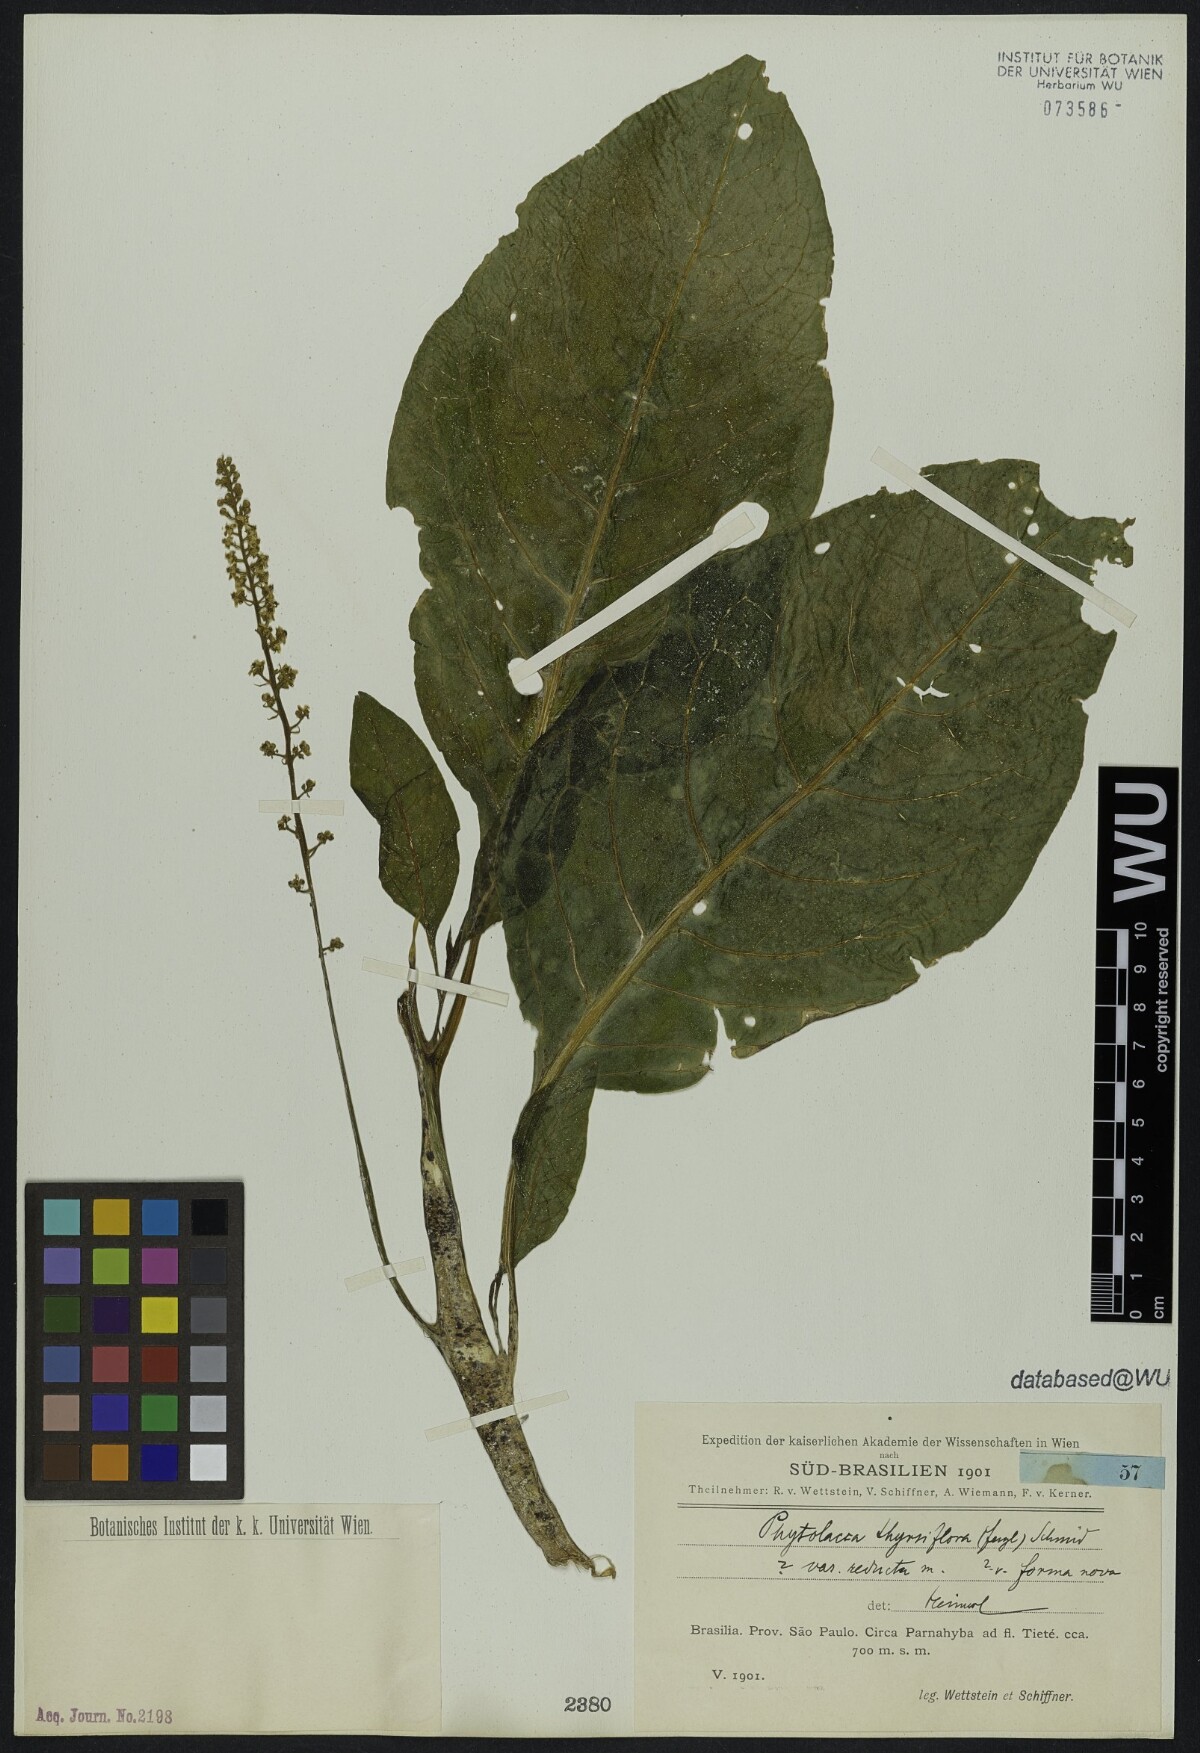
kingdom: Plantae
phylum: Tracheophyta
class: Magnoliopsida
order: Caryophyllales
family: Phytolaccaceae
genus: Phytolacca
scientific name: Phytolacca thyrsiflora
